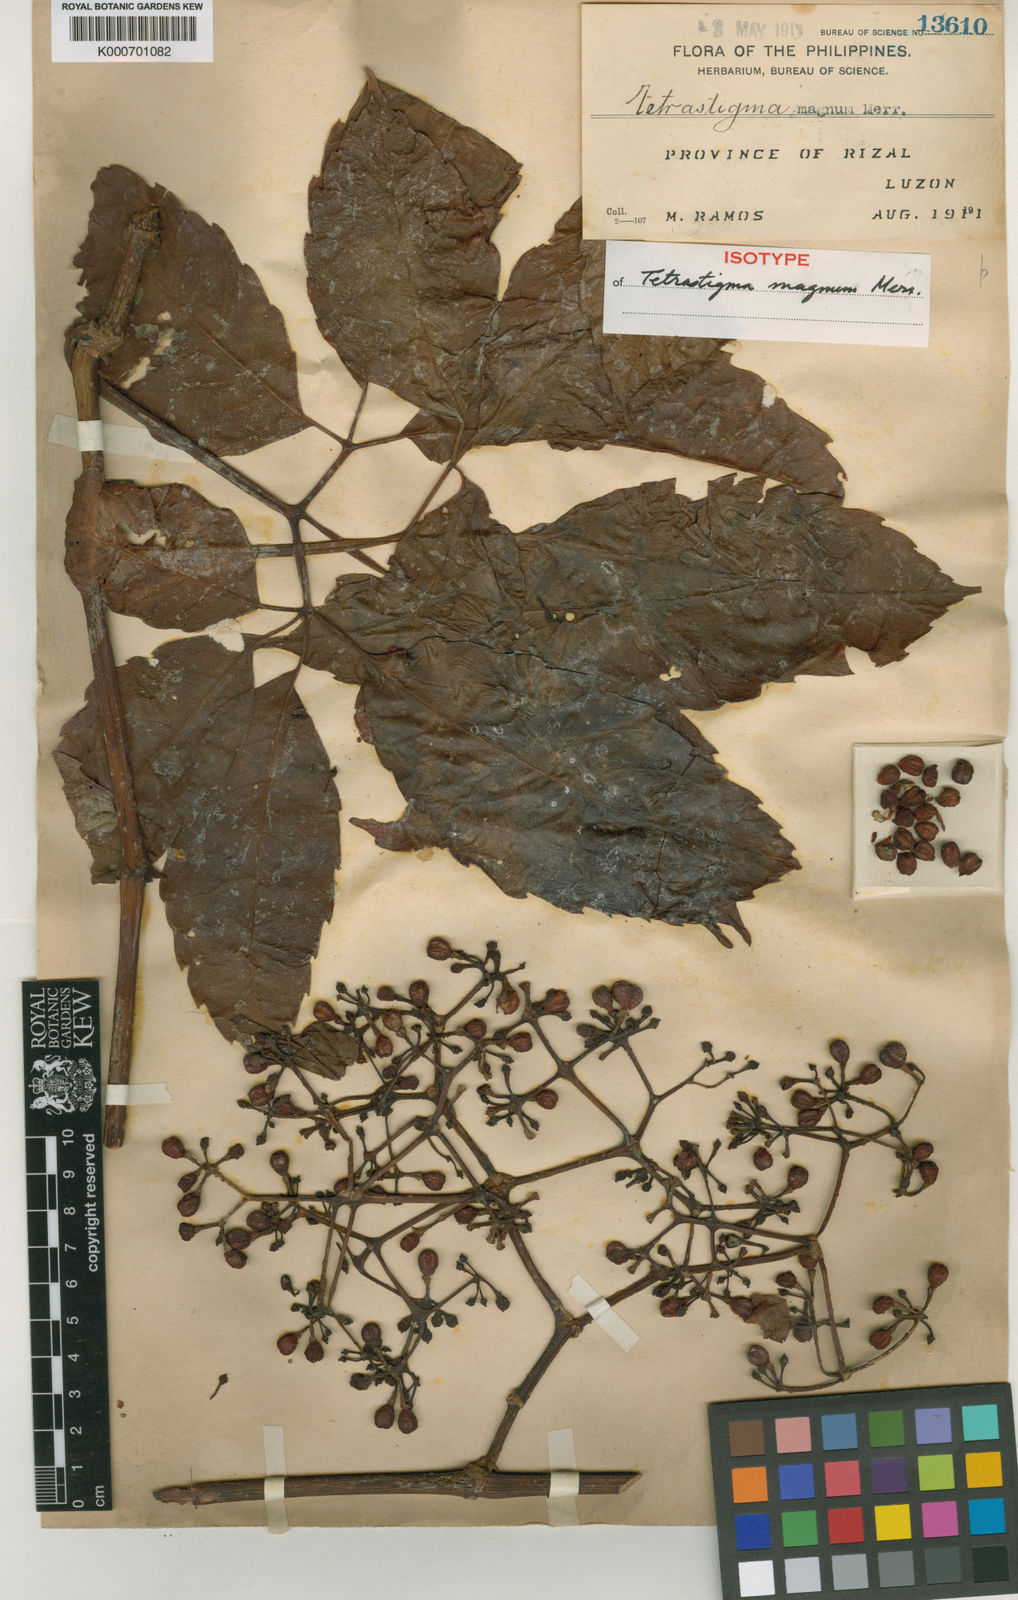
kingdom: Plantae
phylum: Tracheophyta
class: Magnoliopsida
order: Vitales
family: Vitaceae
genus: Tetrastigma
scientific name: Tetrastigma magnum
